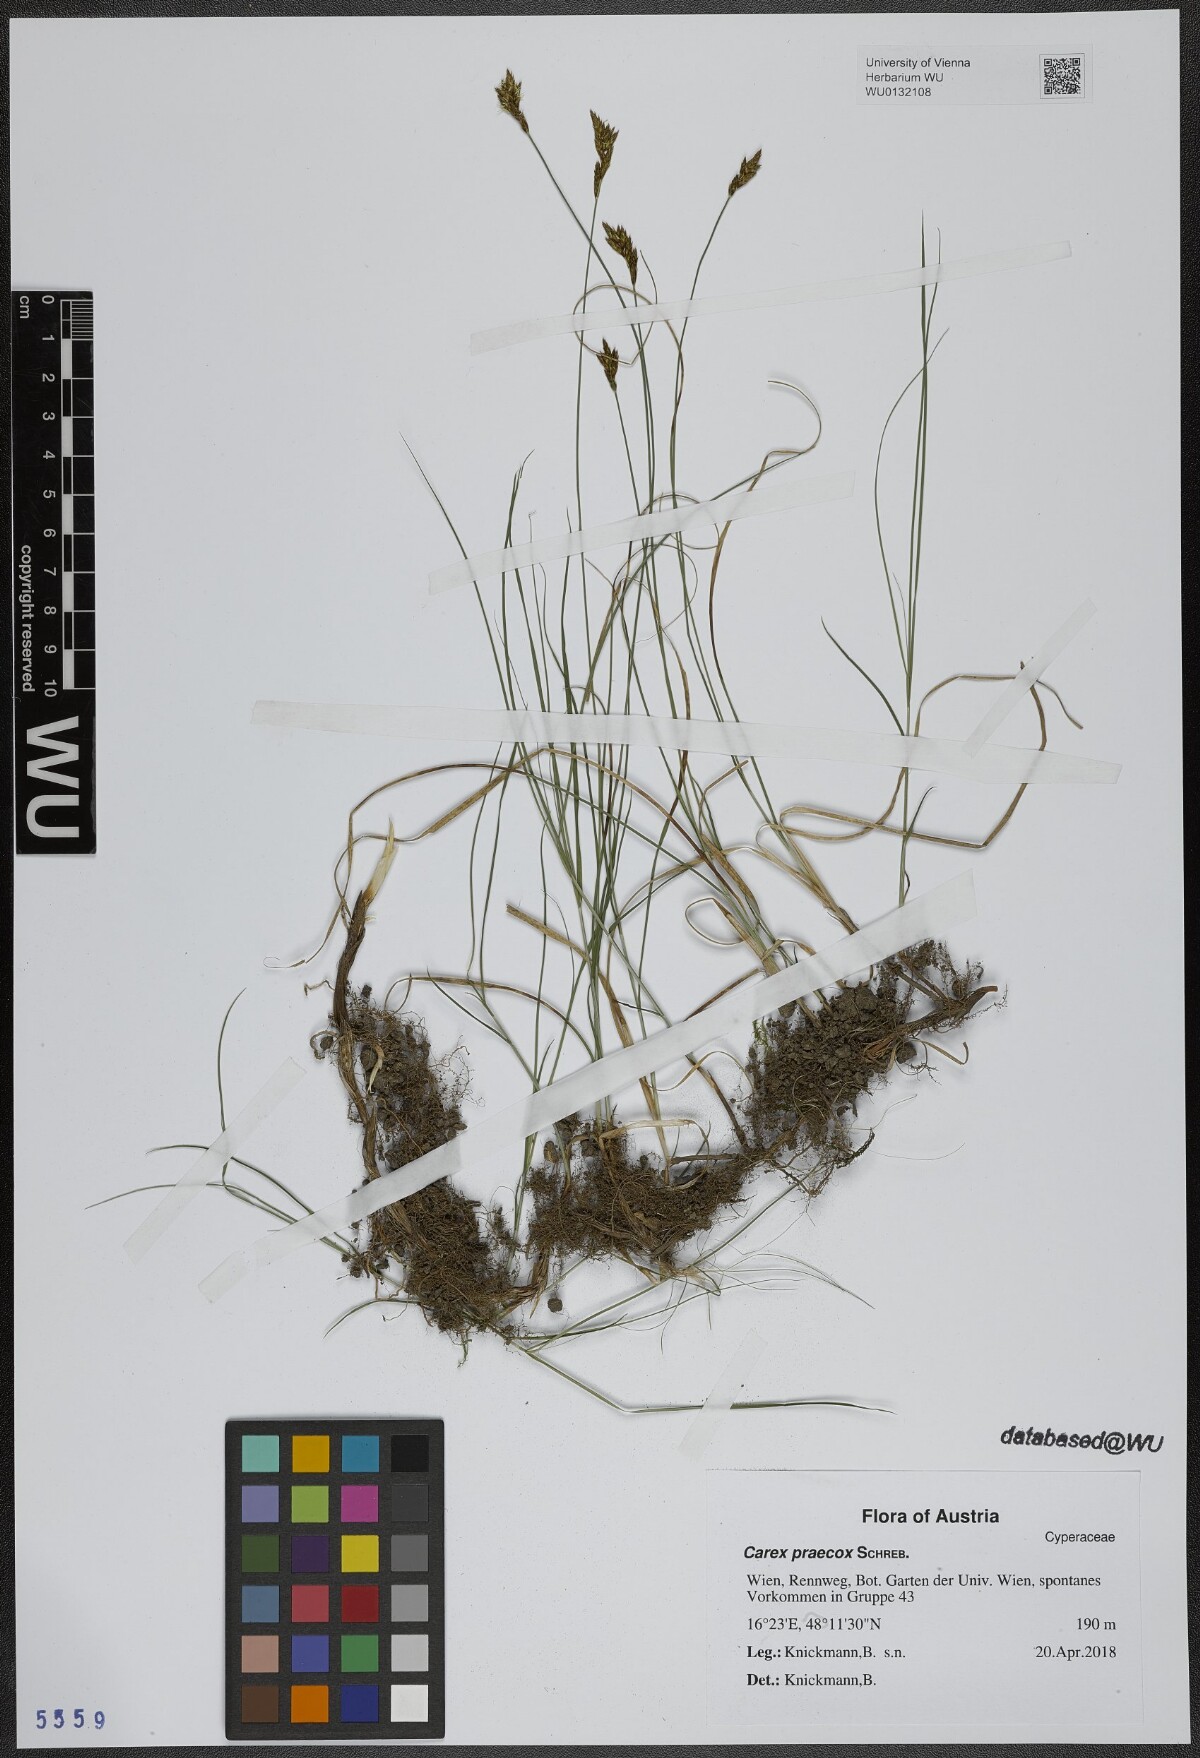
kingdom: Plantae
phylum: Tracheophyta
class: Liliopsida
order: Poales
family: Cyperaceae
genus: Carex
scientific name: Carex praecox
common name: Early sedge
